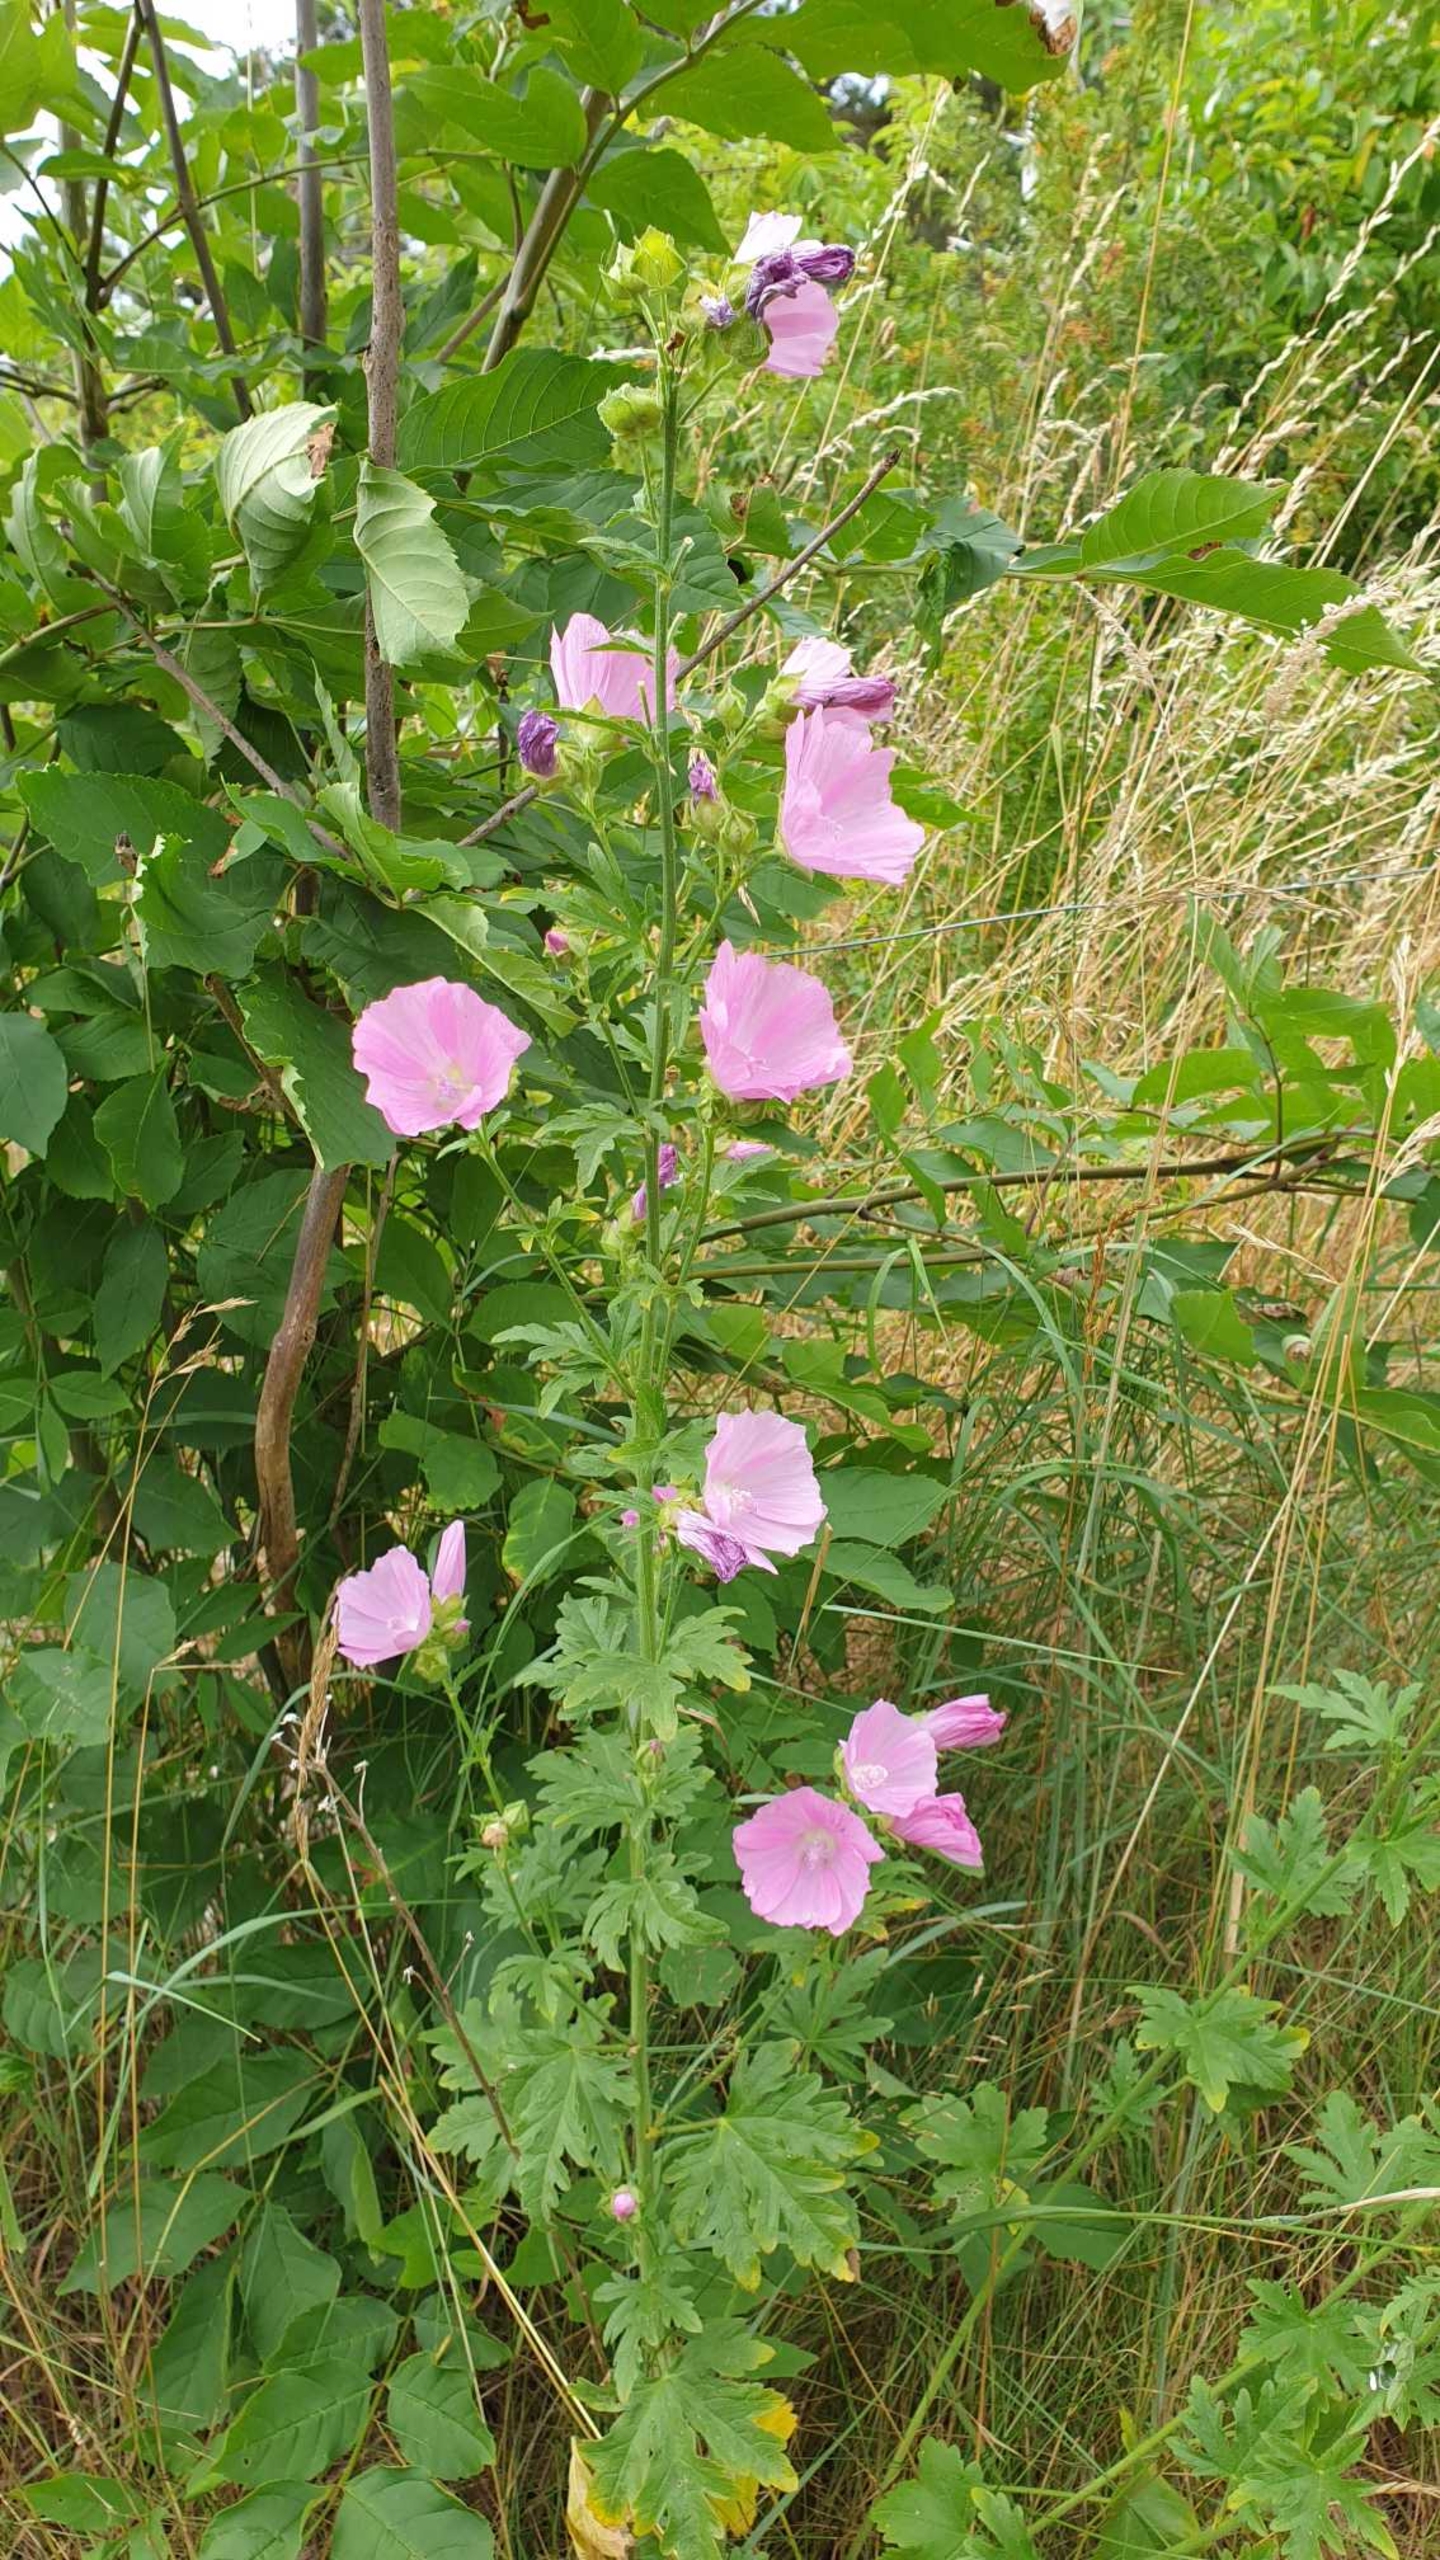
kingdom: Plantae
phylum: Tracheophyta
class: Magnoliopsida
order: Malvales
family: Malvaceae
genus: Malva
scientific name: Malva alcea
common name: Rosen-katost
